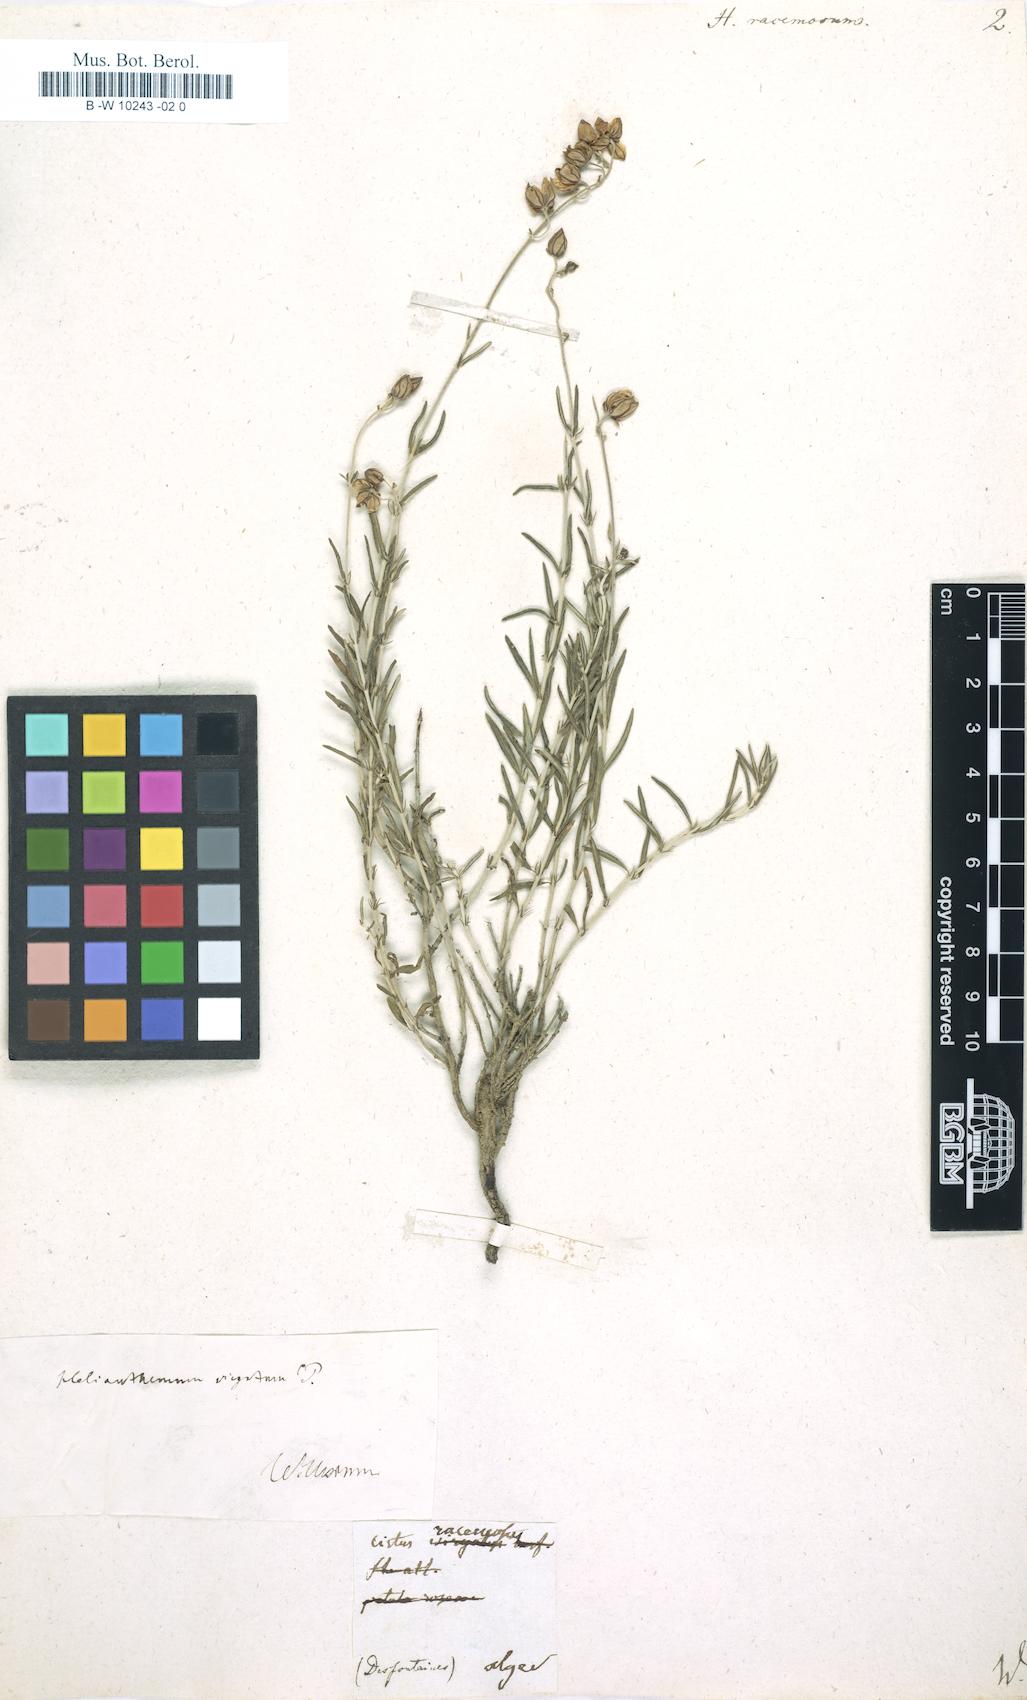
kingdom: Plantae
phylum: Tracheophyta
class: Magnoliopsida
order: Malvales
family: Cistaceae
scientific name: Cistaceae
